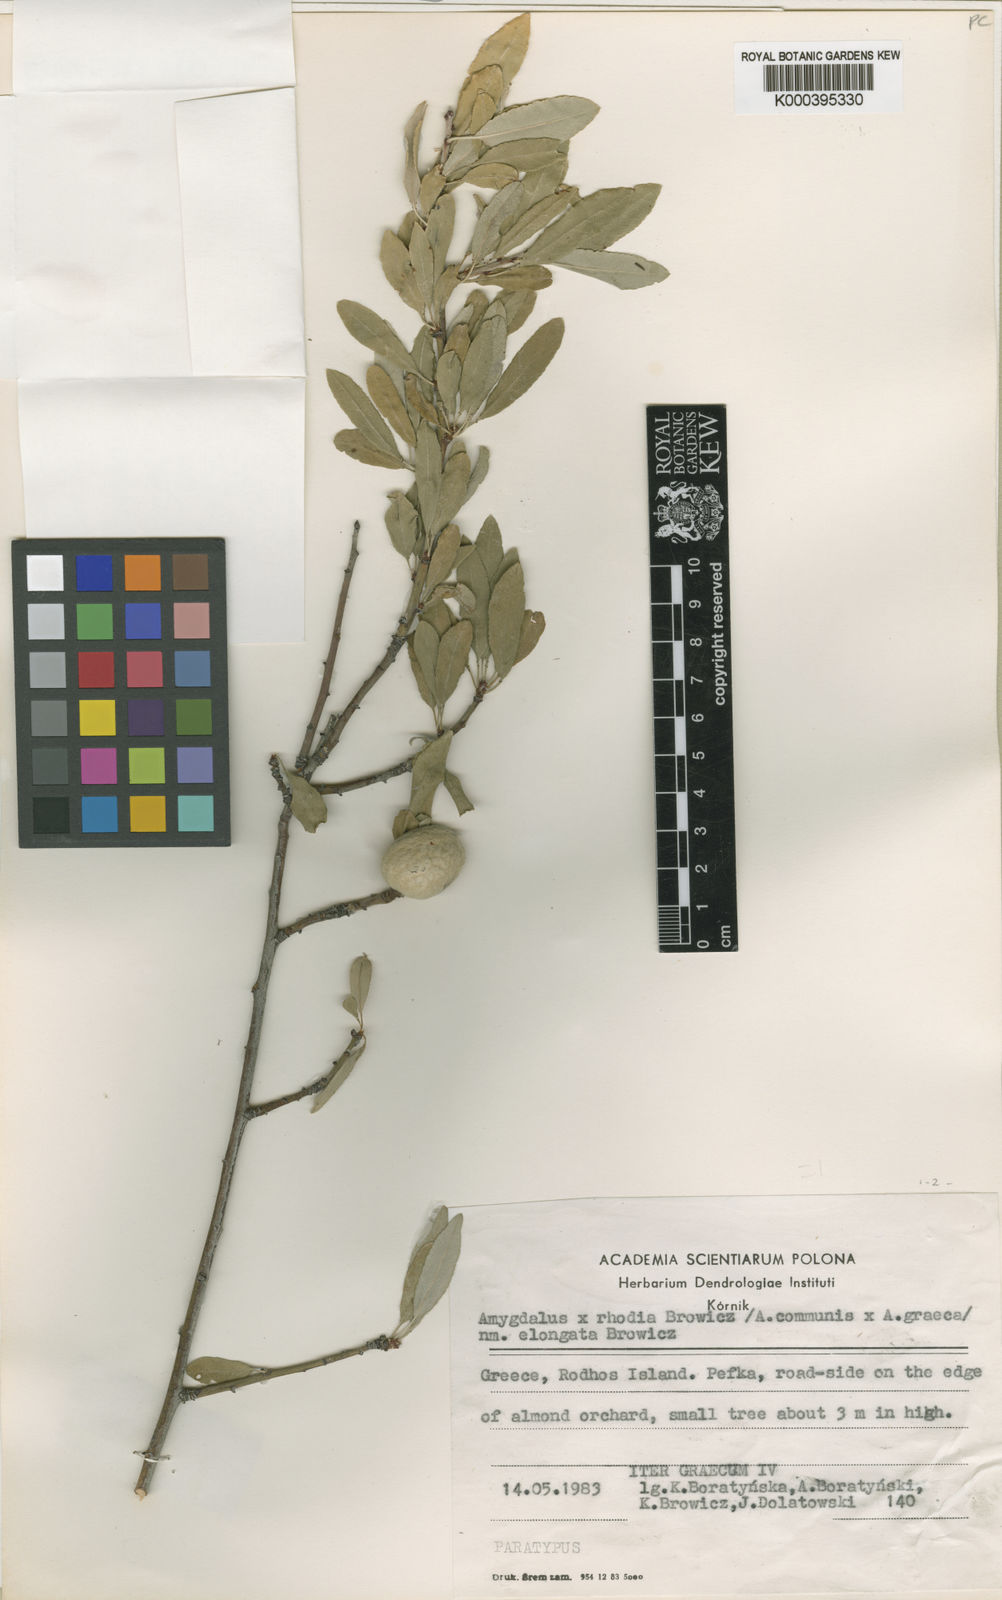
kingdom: Plantae
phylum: Tracheophyta
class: Magnoliopsida
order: Rosales
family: Rosaceae
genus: Prunus
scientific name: Prunus
